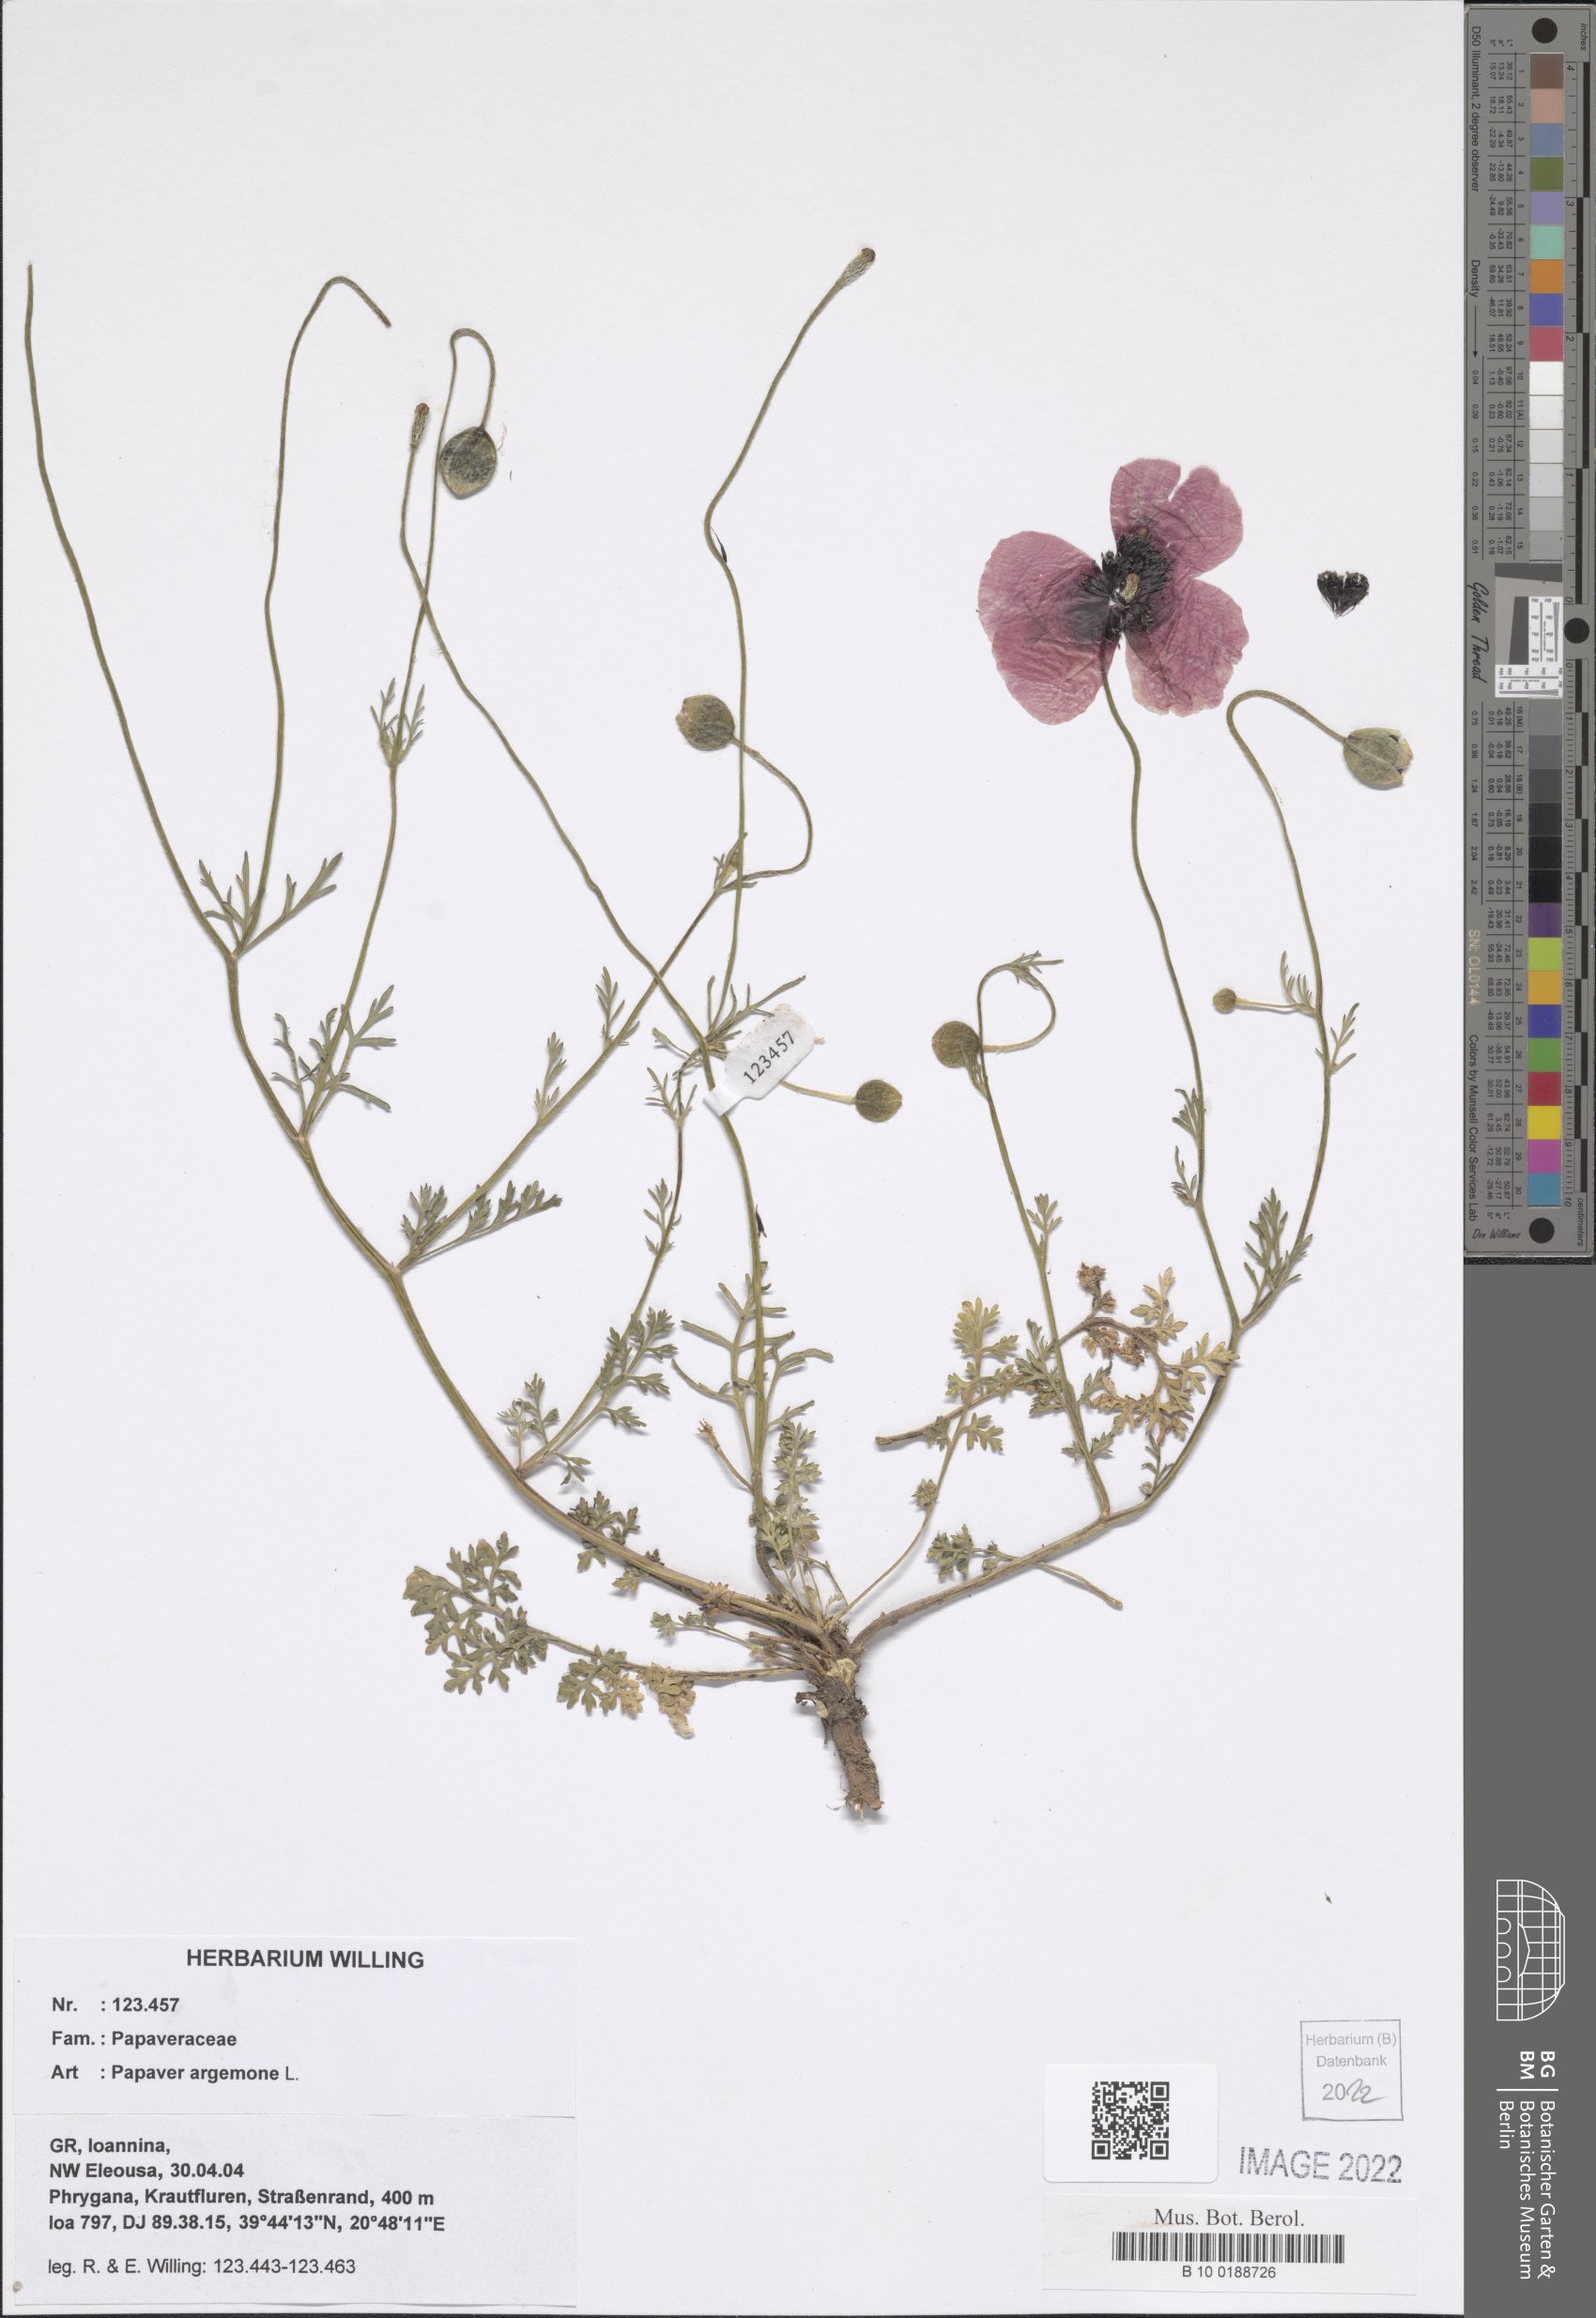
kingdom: Plantae
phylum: Tracheophyta
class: Magnoliopsida
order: Ranunculales
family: Papaveraceae
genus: Roemeria
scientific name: Roemeria argemone
